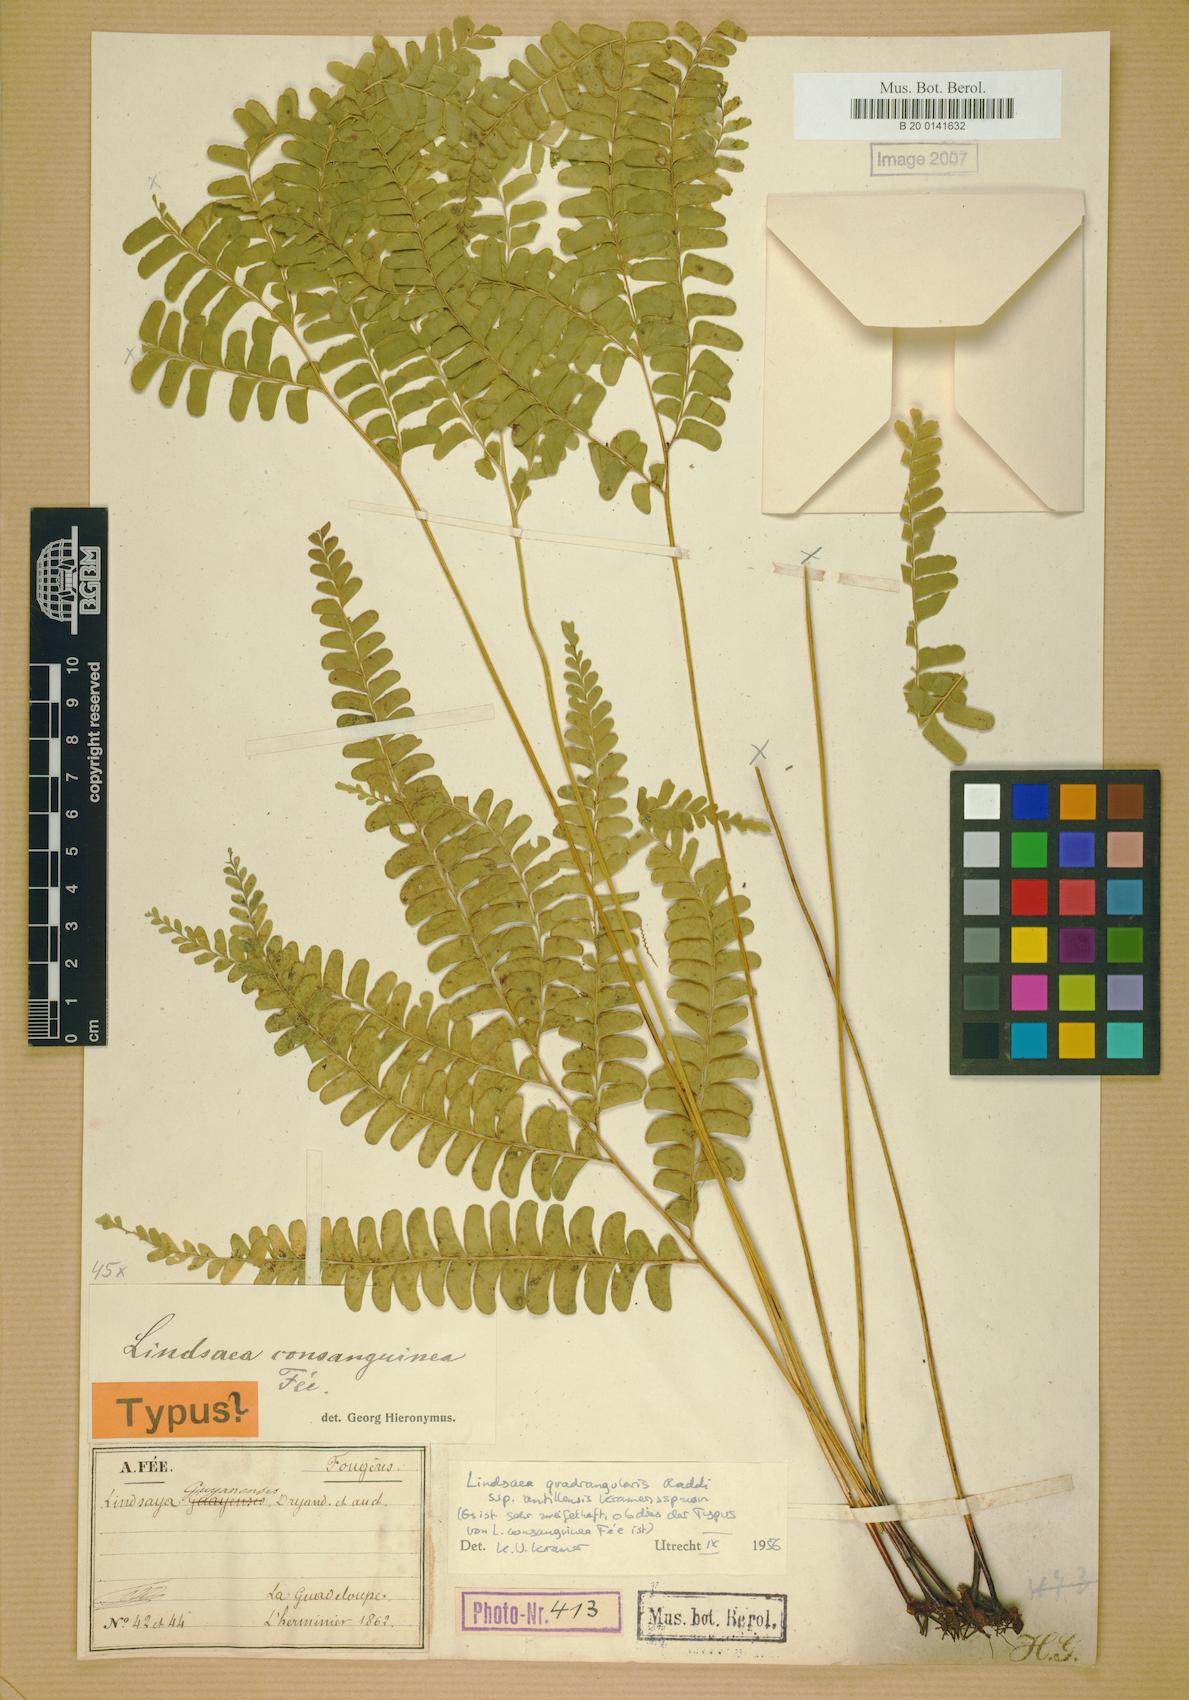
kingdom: Plantae
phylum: Tracheophyta
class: Polypodiopsida
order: Polypodiales
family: Lindsaeaceae
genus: Lindsaea
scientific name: Lindsaea stricta
